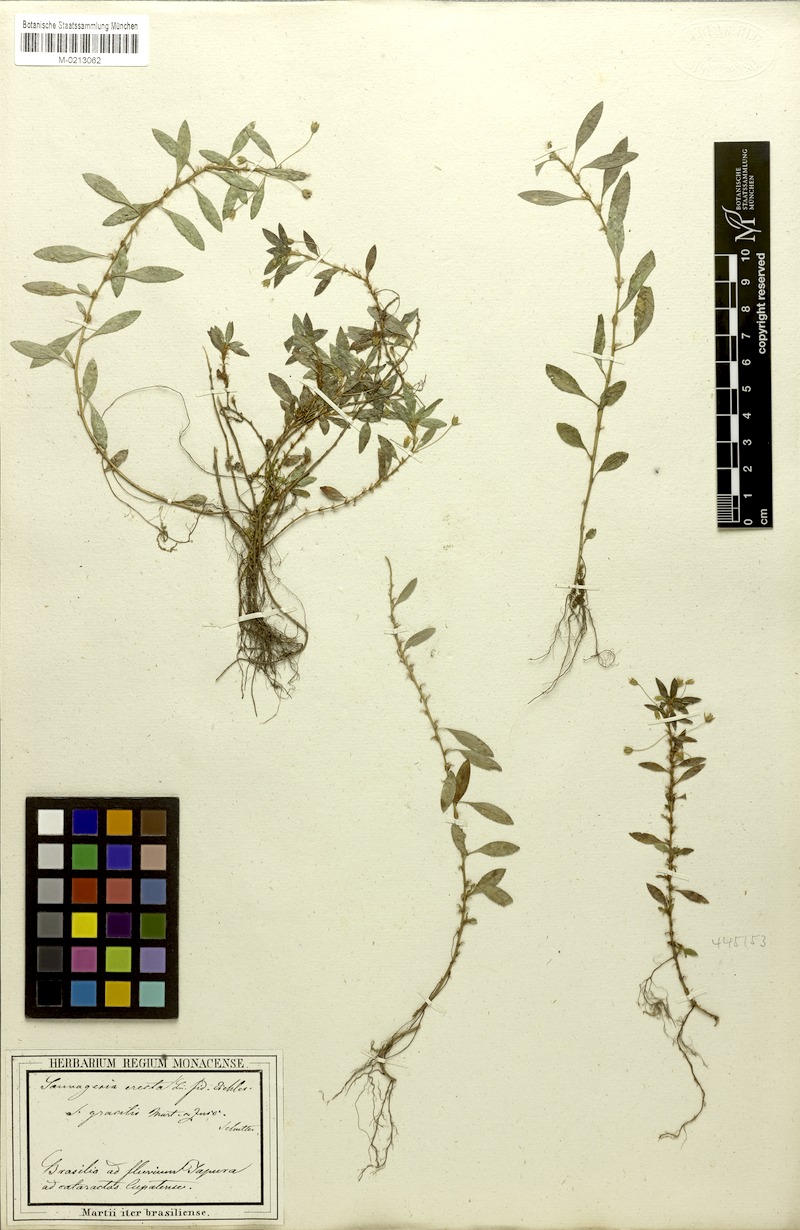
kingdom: Plantae
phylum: Tracheophyta
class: Magnoliopsida
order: Malpighiales
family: Ochnaceae
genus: Sauvagesia
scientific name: Sauvagesia erecta
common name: Creole tea
